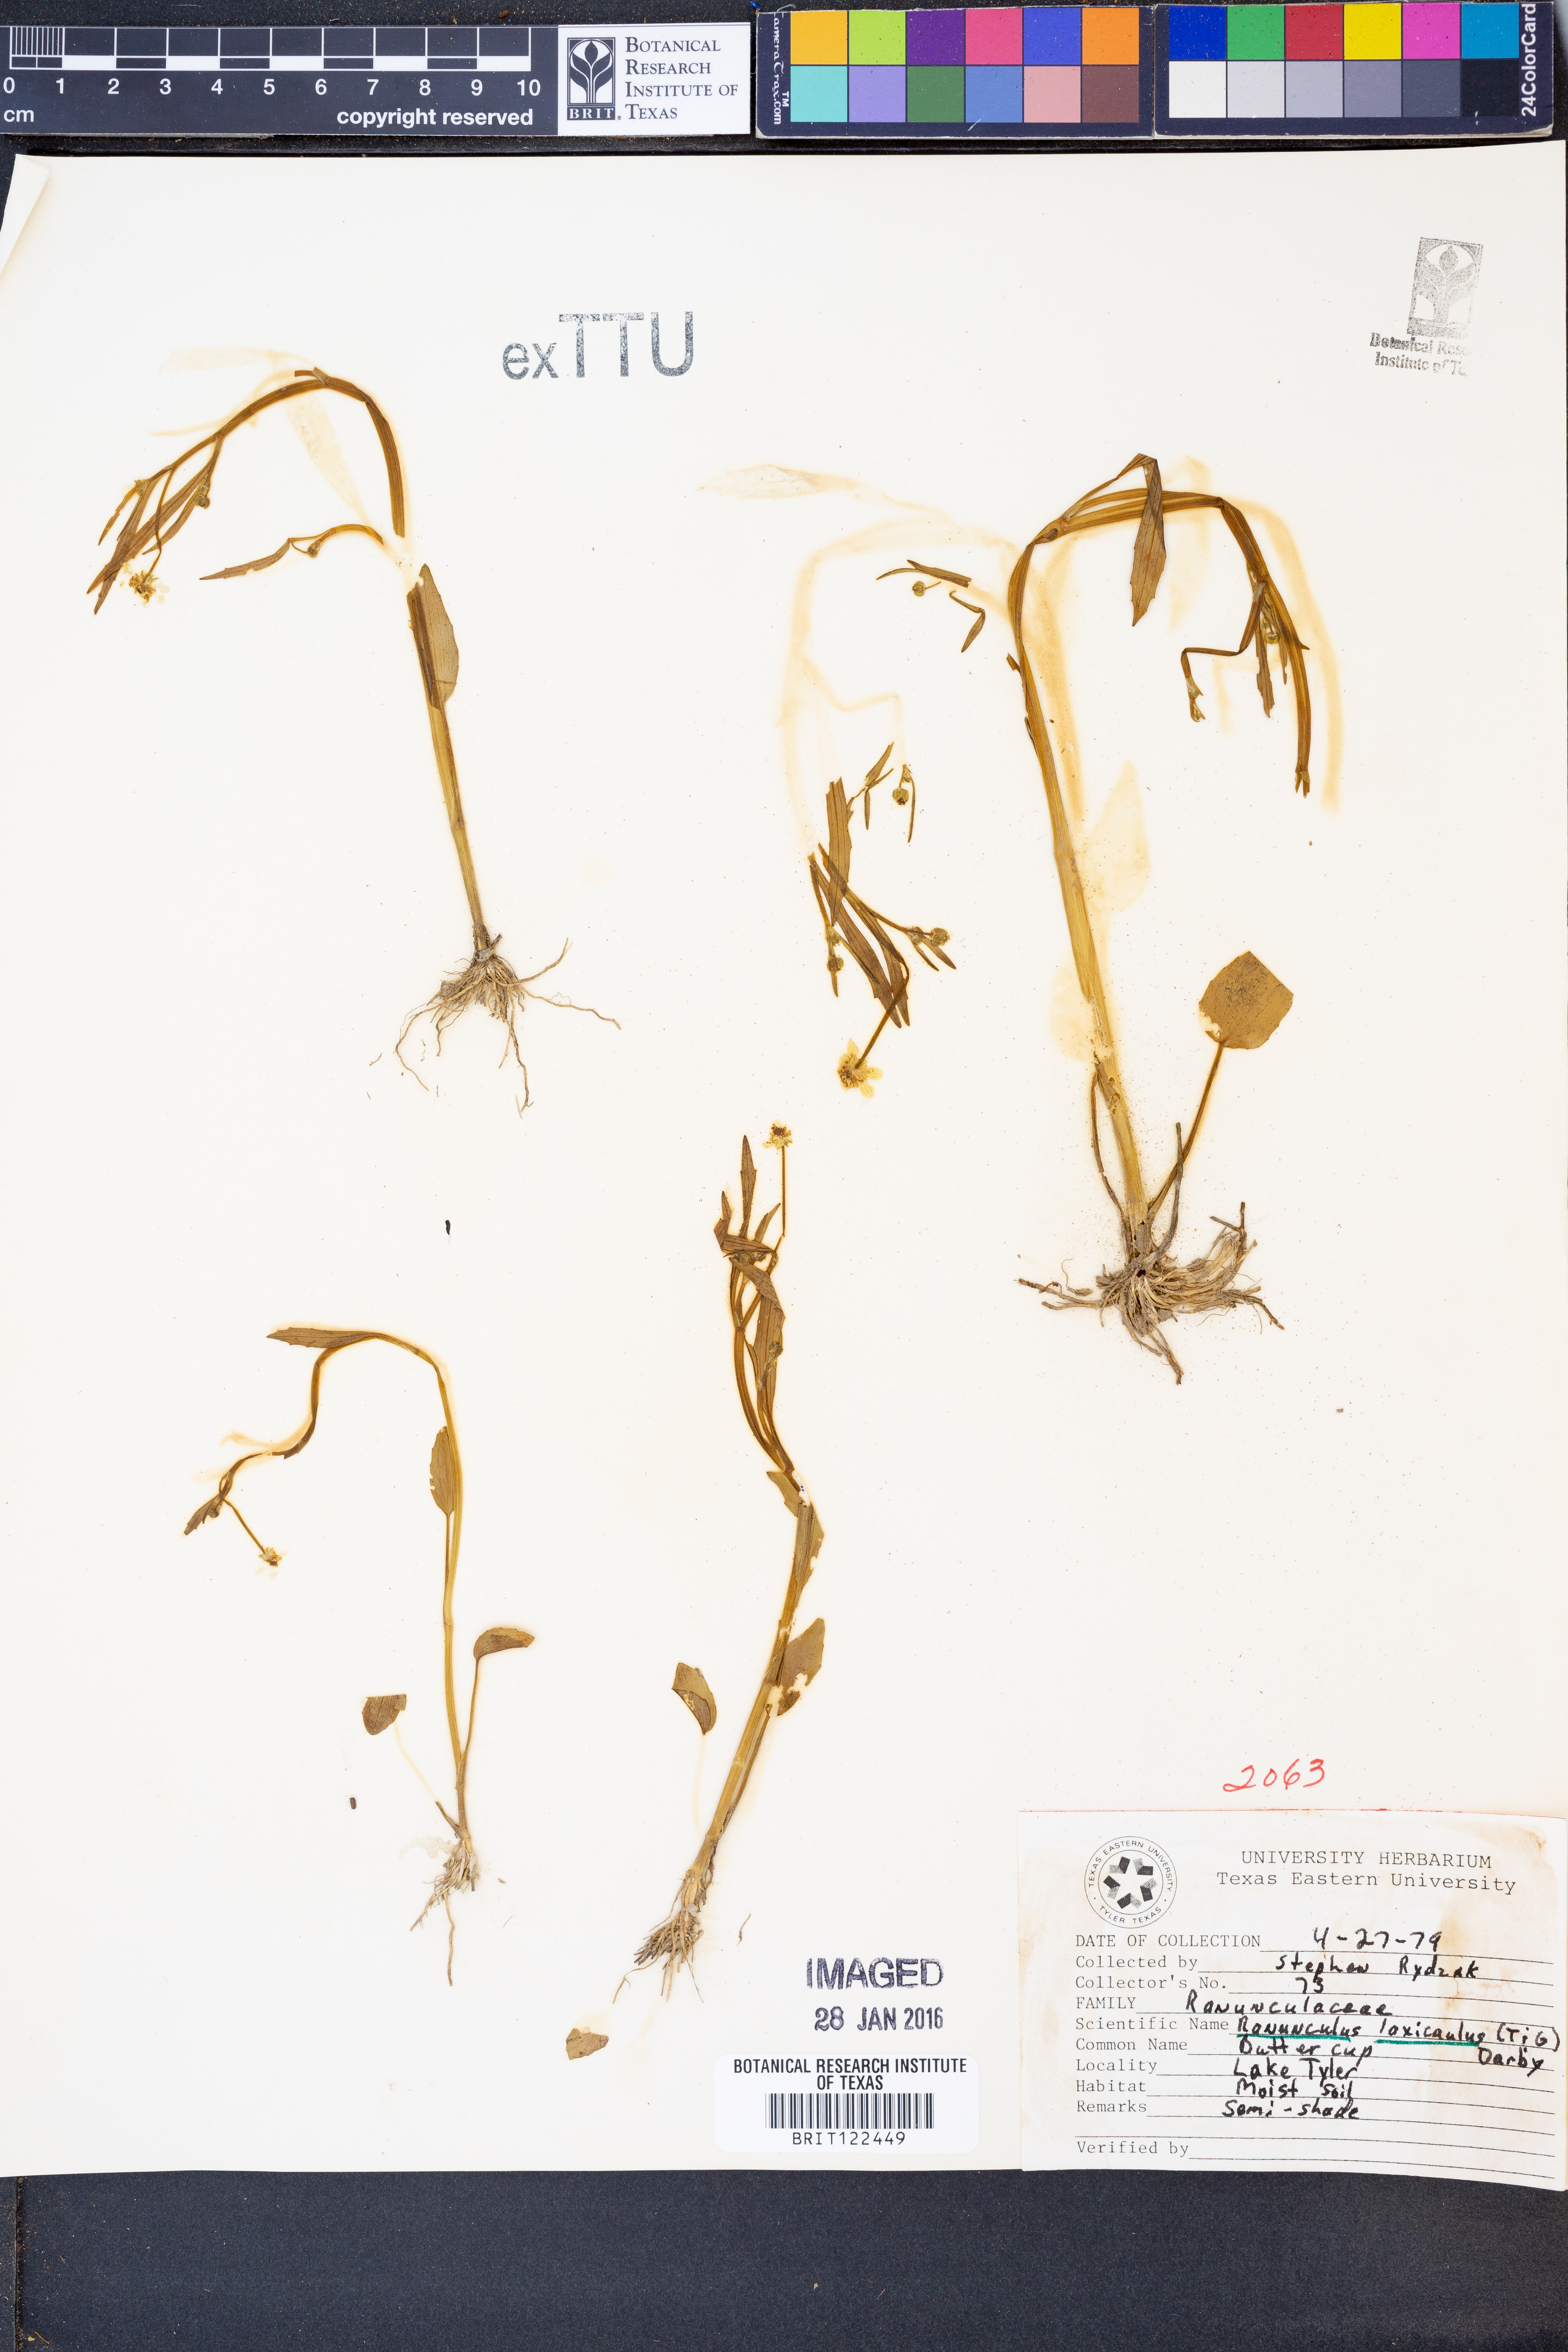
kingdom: Plantae
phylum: Tracheophyta
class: Magnoliopsida
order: Ranunculales
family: Ranunculaceae
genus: Ranunculus
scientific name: Ranunculus laxicaulis
